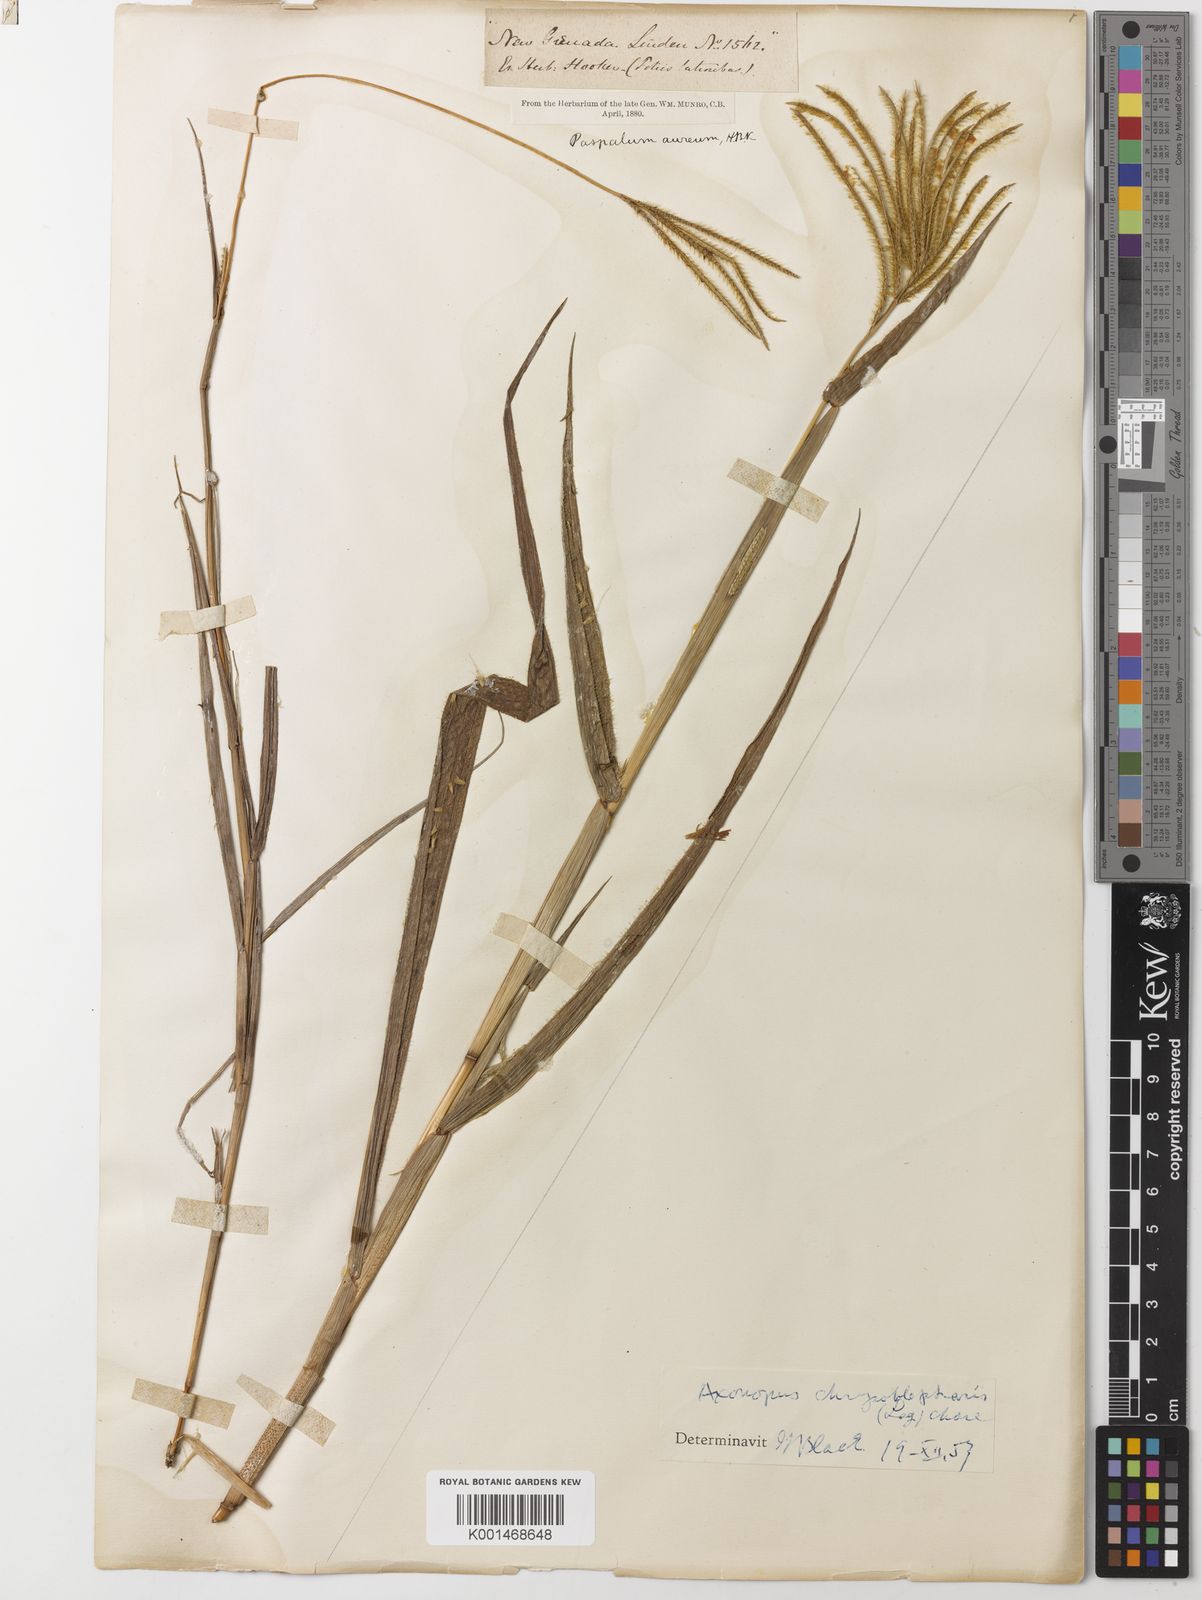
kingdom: Plantae
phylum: Tracheophyta
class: Liliopsida
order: Poales
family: Poaceae
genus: Axonopus
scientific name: Axonopus chrysoblepharis
